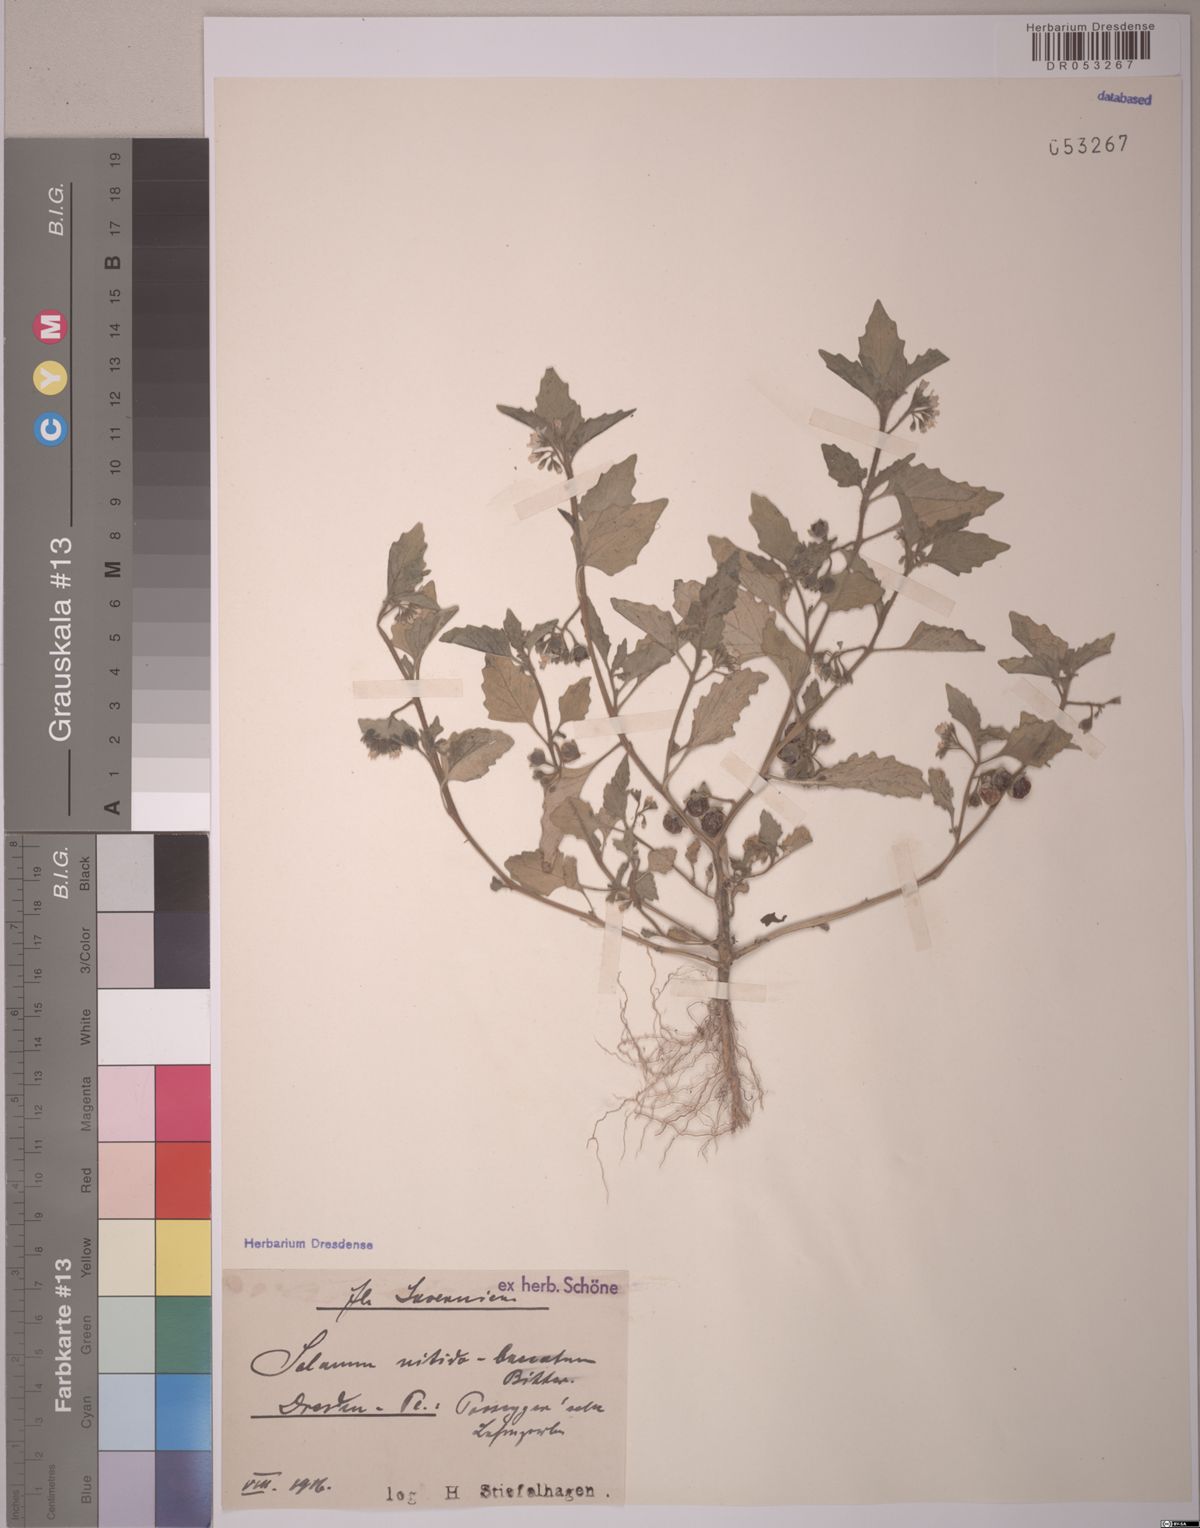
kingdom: Plantae
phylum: Tracheophyta
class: Magnoliopsida
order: Solanales
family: Solanaceae
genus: Solanum
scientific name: Solanum nitidibaccatum
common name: Hairy nightshade
